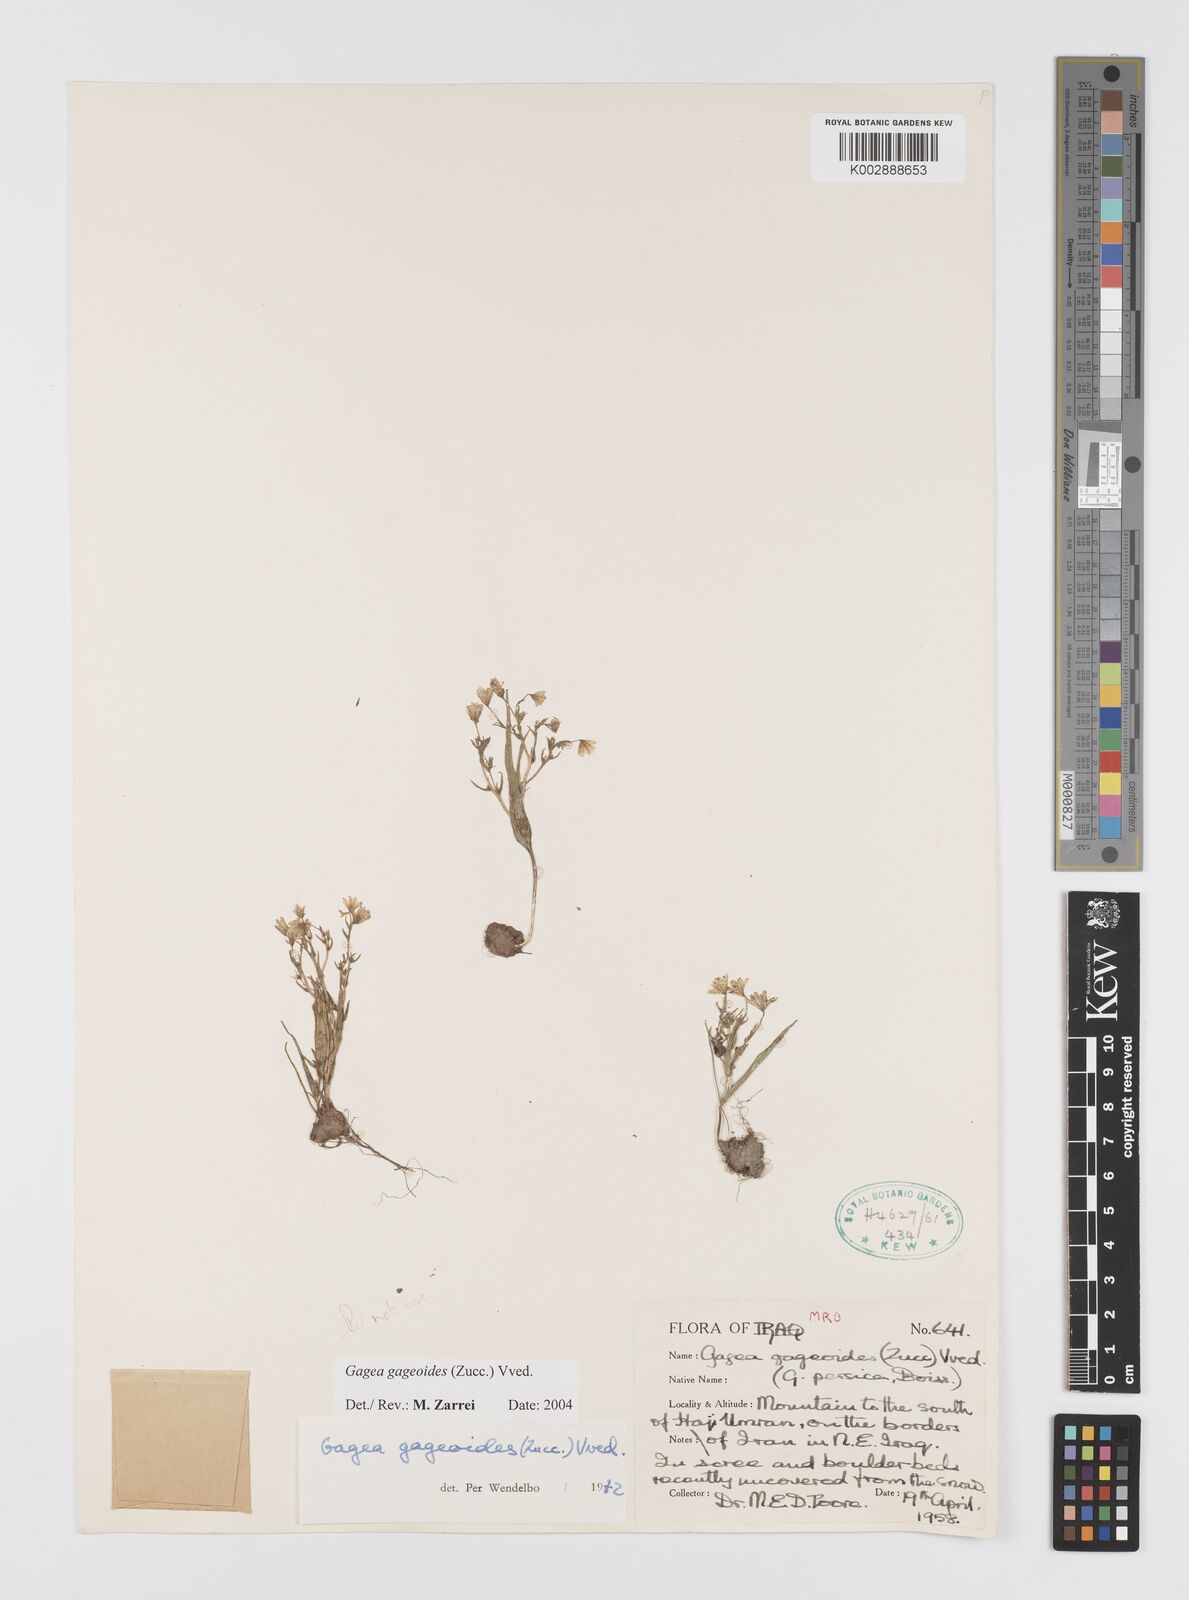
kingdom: Plantae
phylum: Tracheophyta
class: Liliopsida
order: Liliales
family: Liliaceae
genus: Gagea
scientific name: Gagea gageoides
